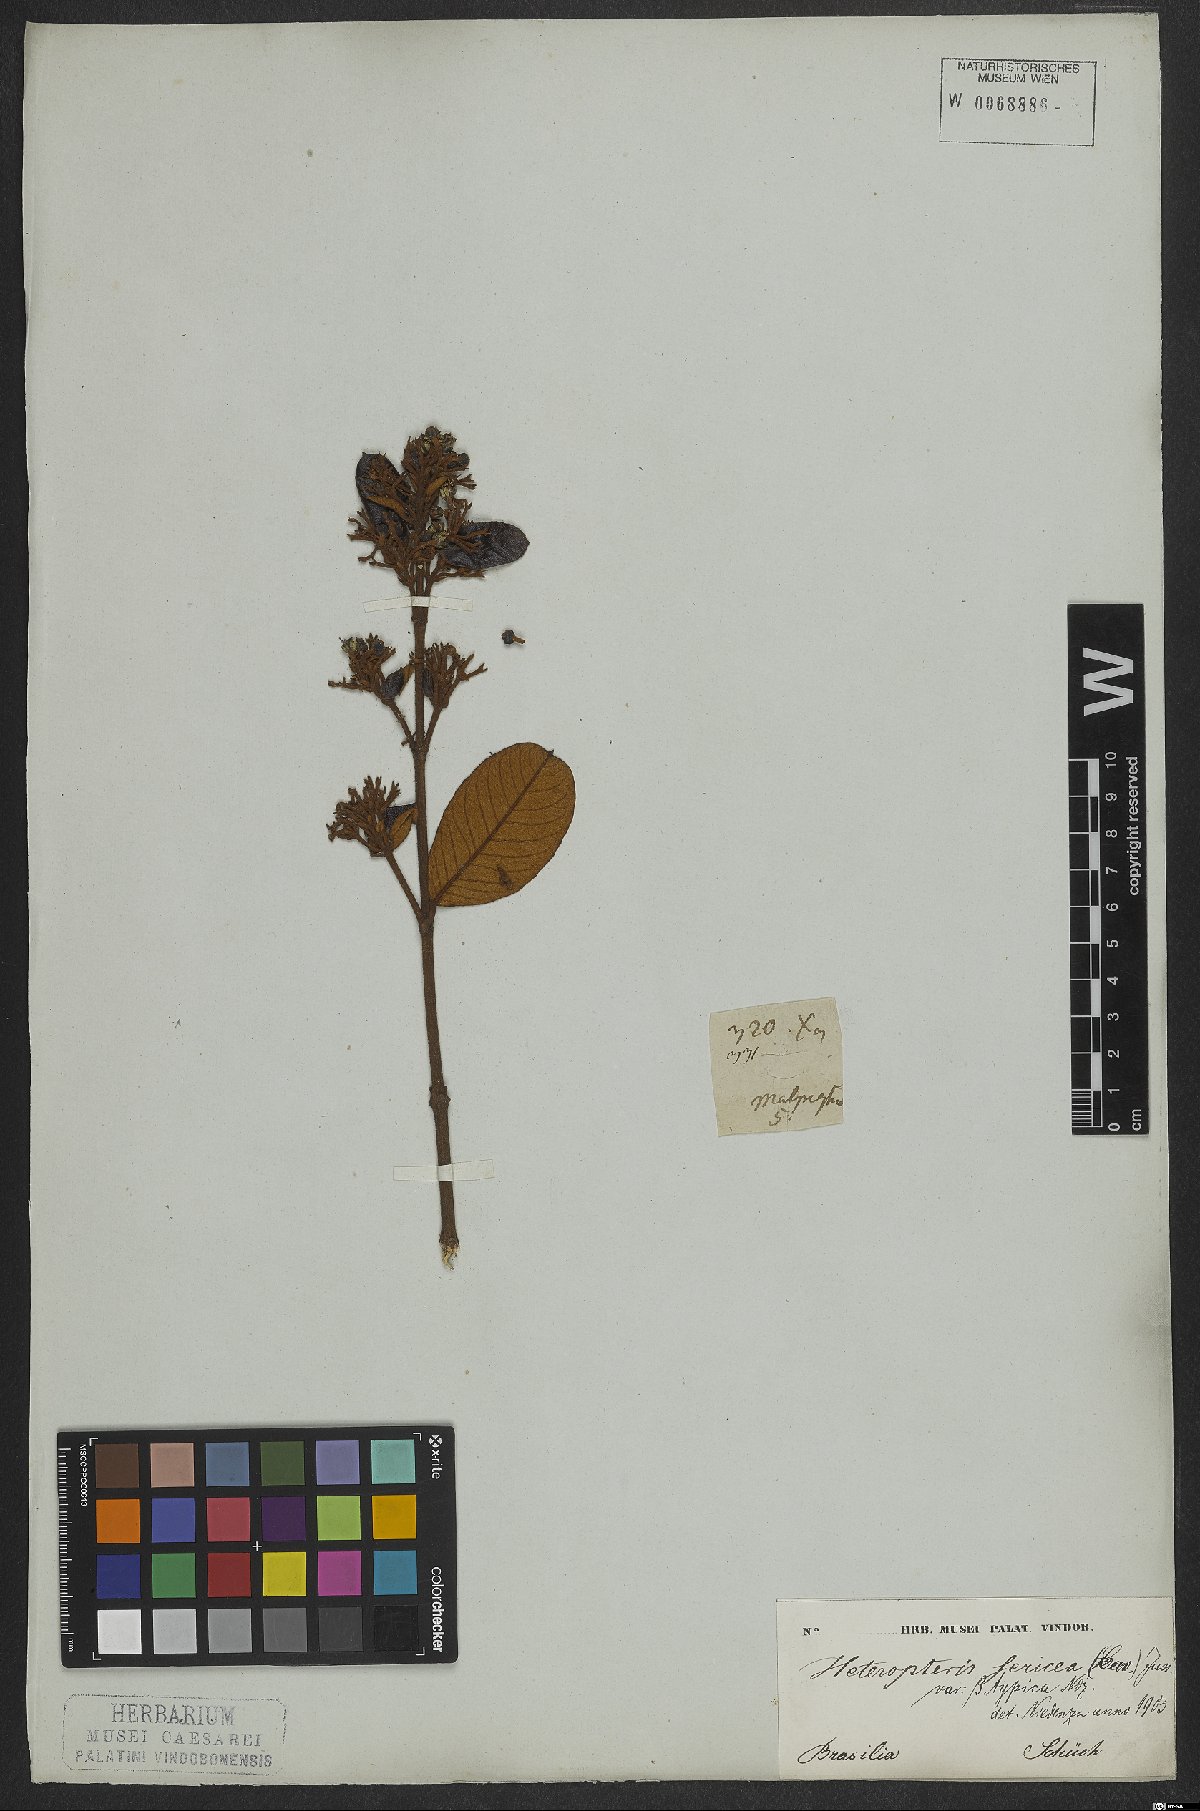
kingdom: Plantae
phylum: Tracheophyta
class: Magnoliopsida
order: Malpighiales
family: Malpighiaceae
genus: Heteropterys
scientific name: Heteropterys sericea
